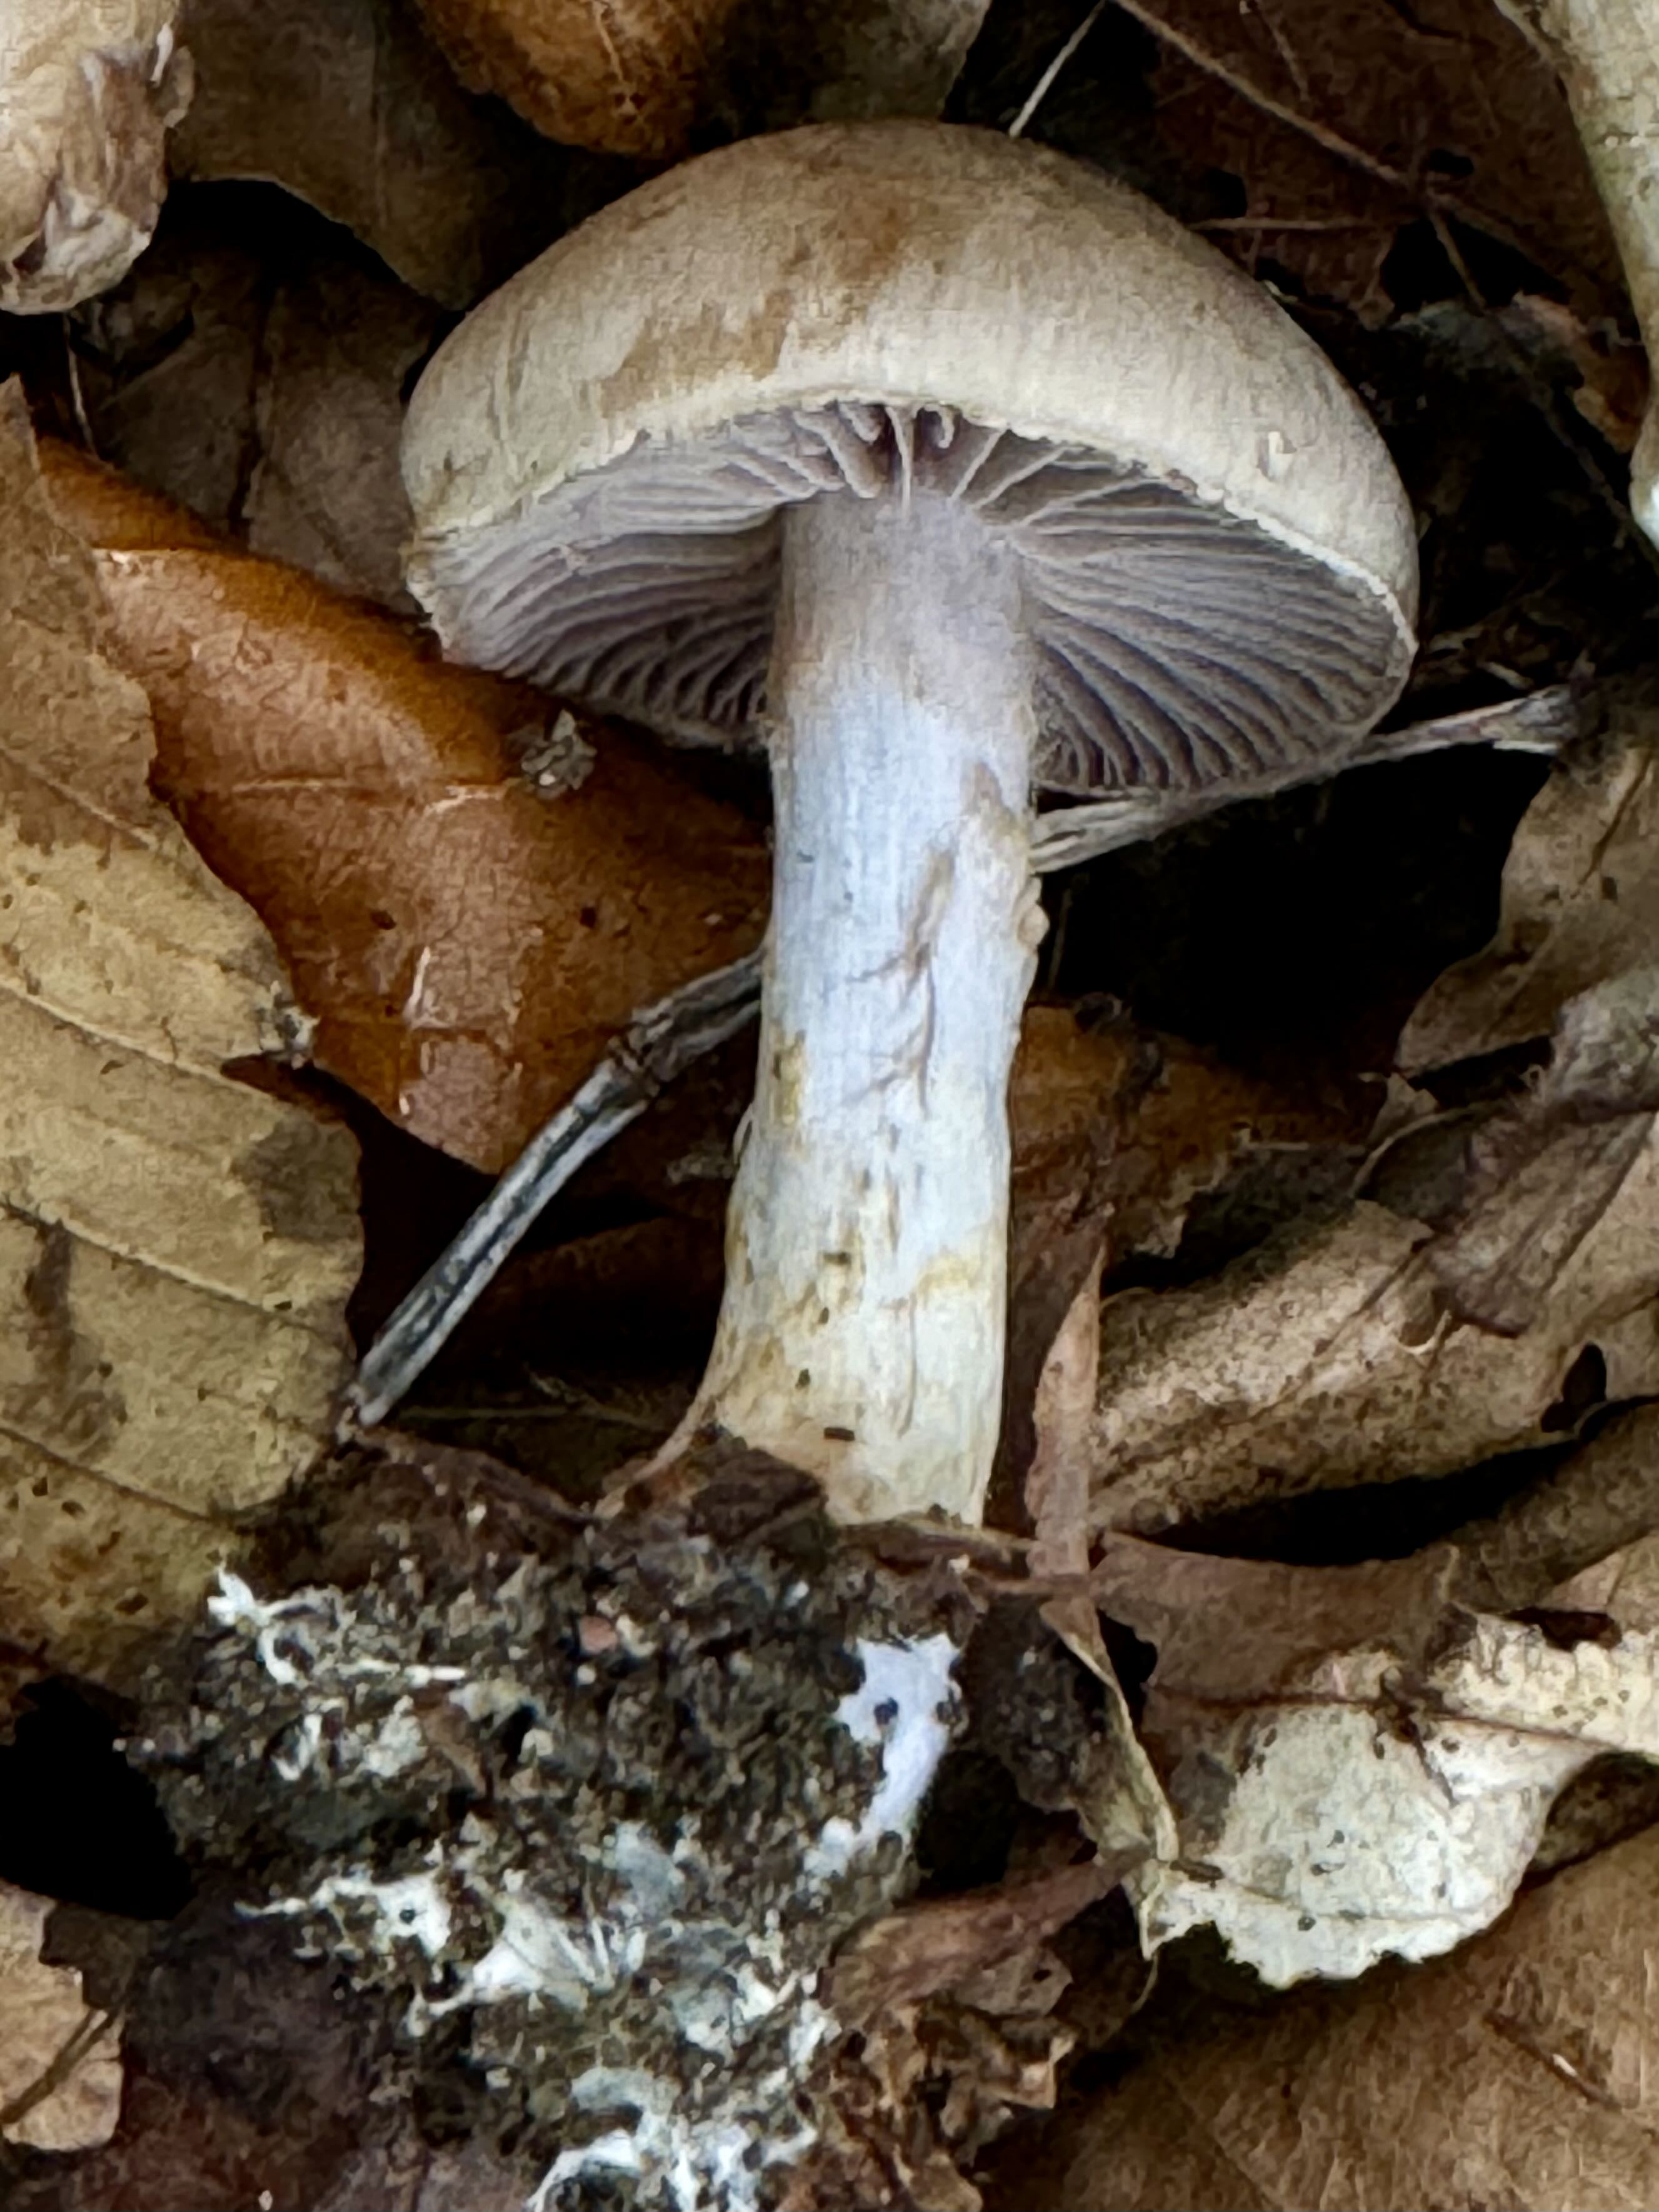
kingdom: Fungi
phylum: Basidiomycota
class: Agaricomycetes
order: Agaricales
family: Cortinariaceae
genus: Cortinarius
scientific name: Cortinarius
